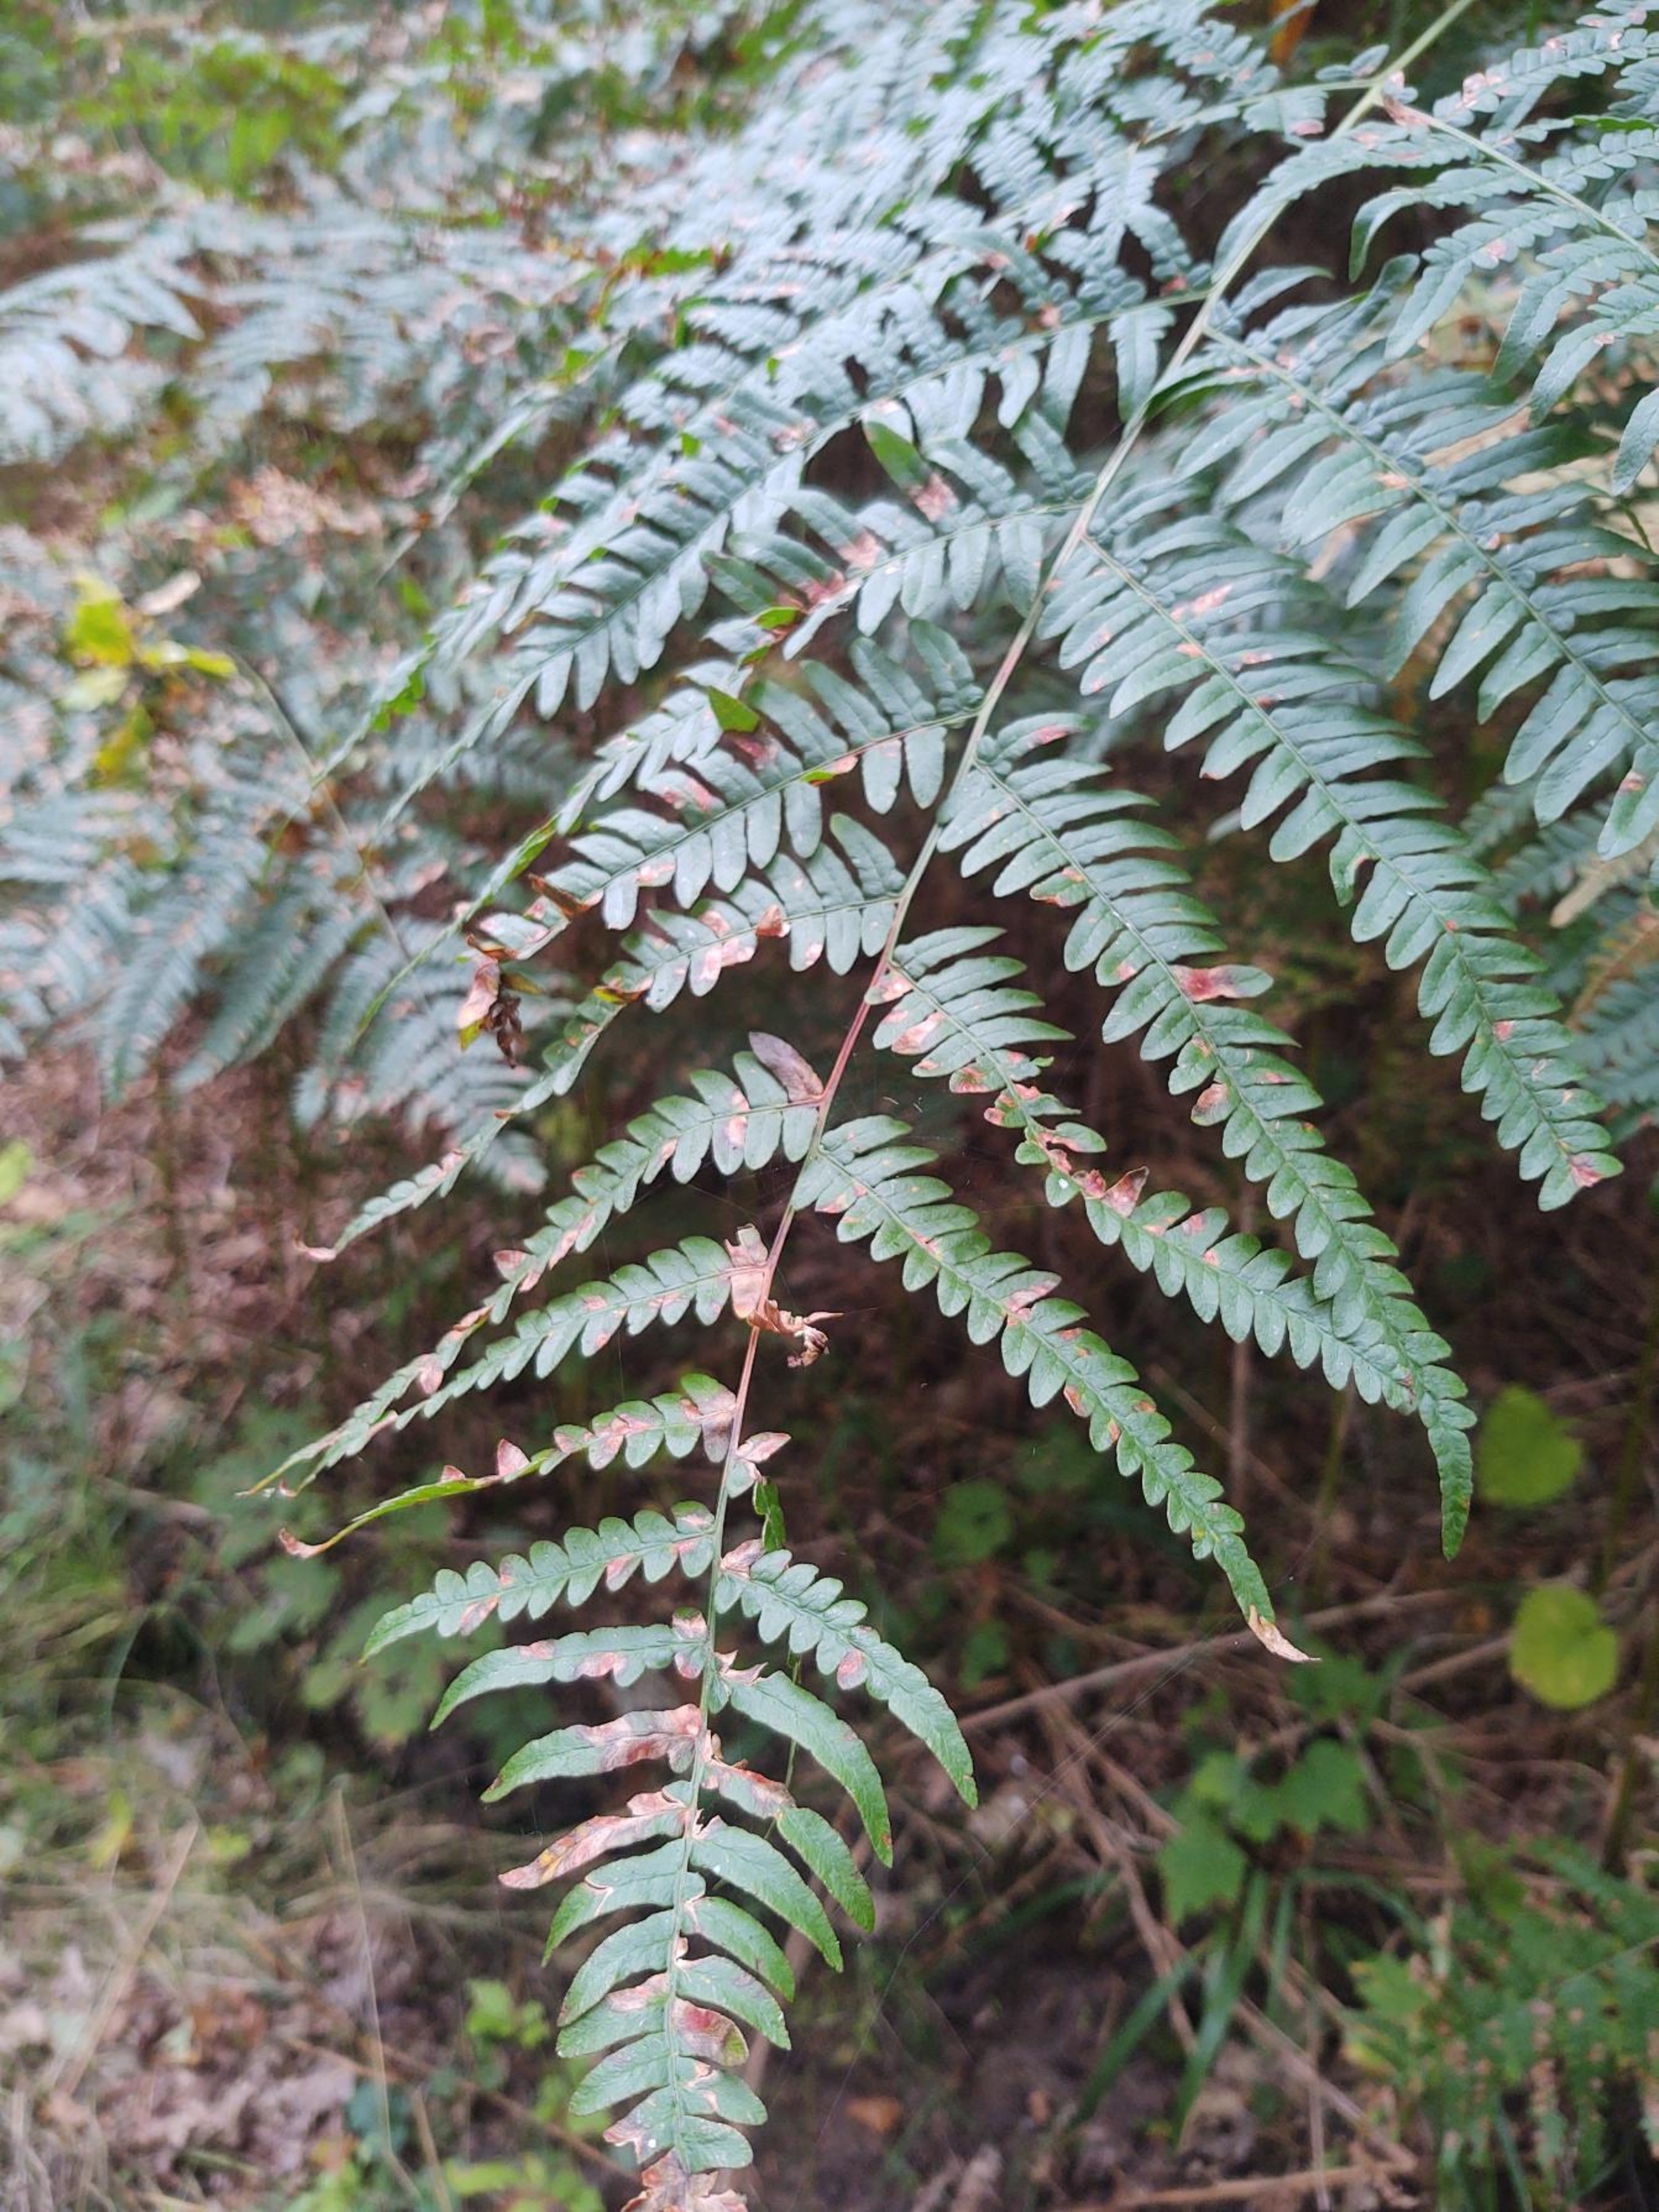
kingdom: Plantae
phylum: Tracheophyta
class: Polypodiopsida
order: Polypodiales
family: Dennstaedtiaceae
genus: Pteridium
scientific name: Pteridium aquilinum
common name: Ørnebregne
